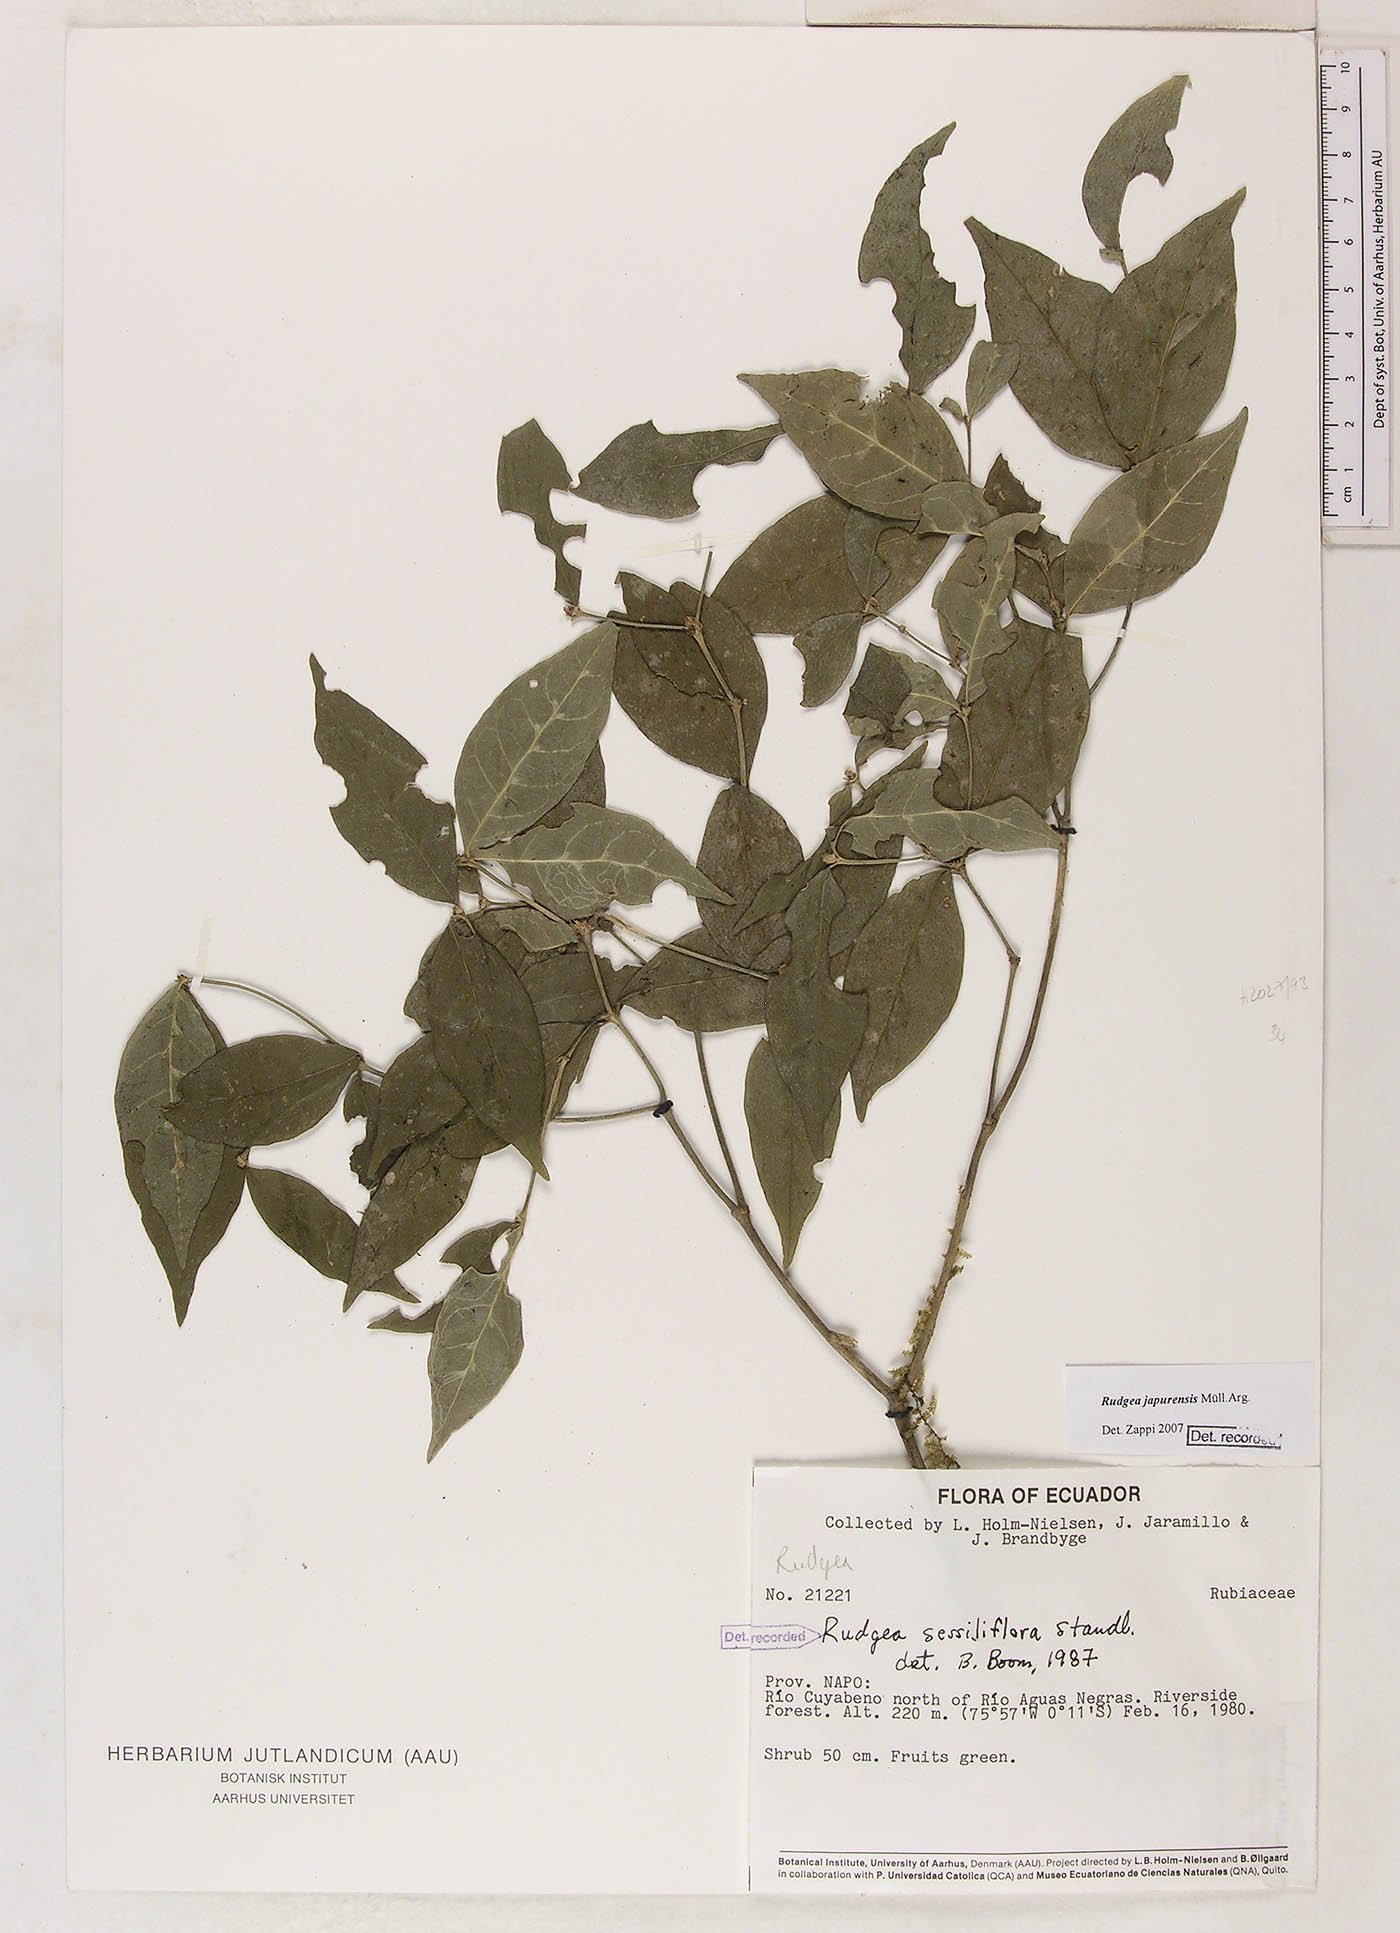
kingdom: Plantae
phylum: Tracheophyta
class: Magnoliopsida
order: Gentianales
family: Rubiaceae
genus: Rudgea
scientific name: Rudgea panurensis
